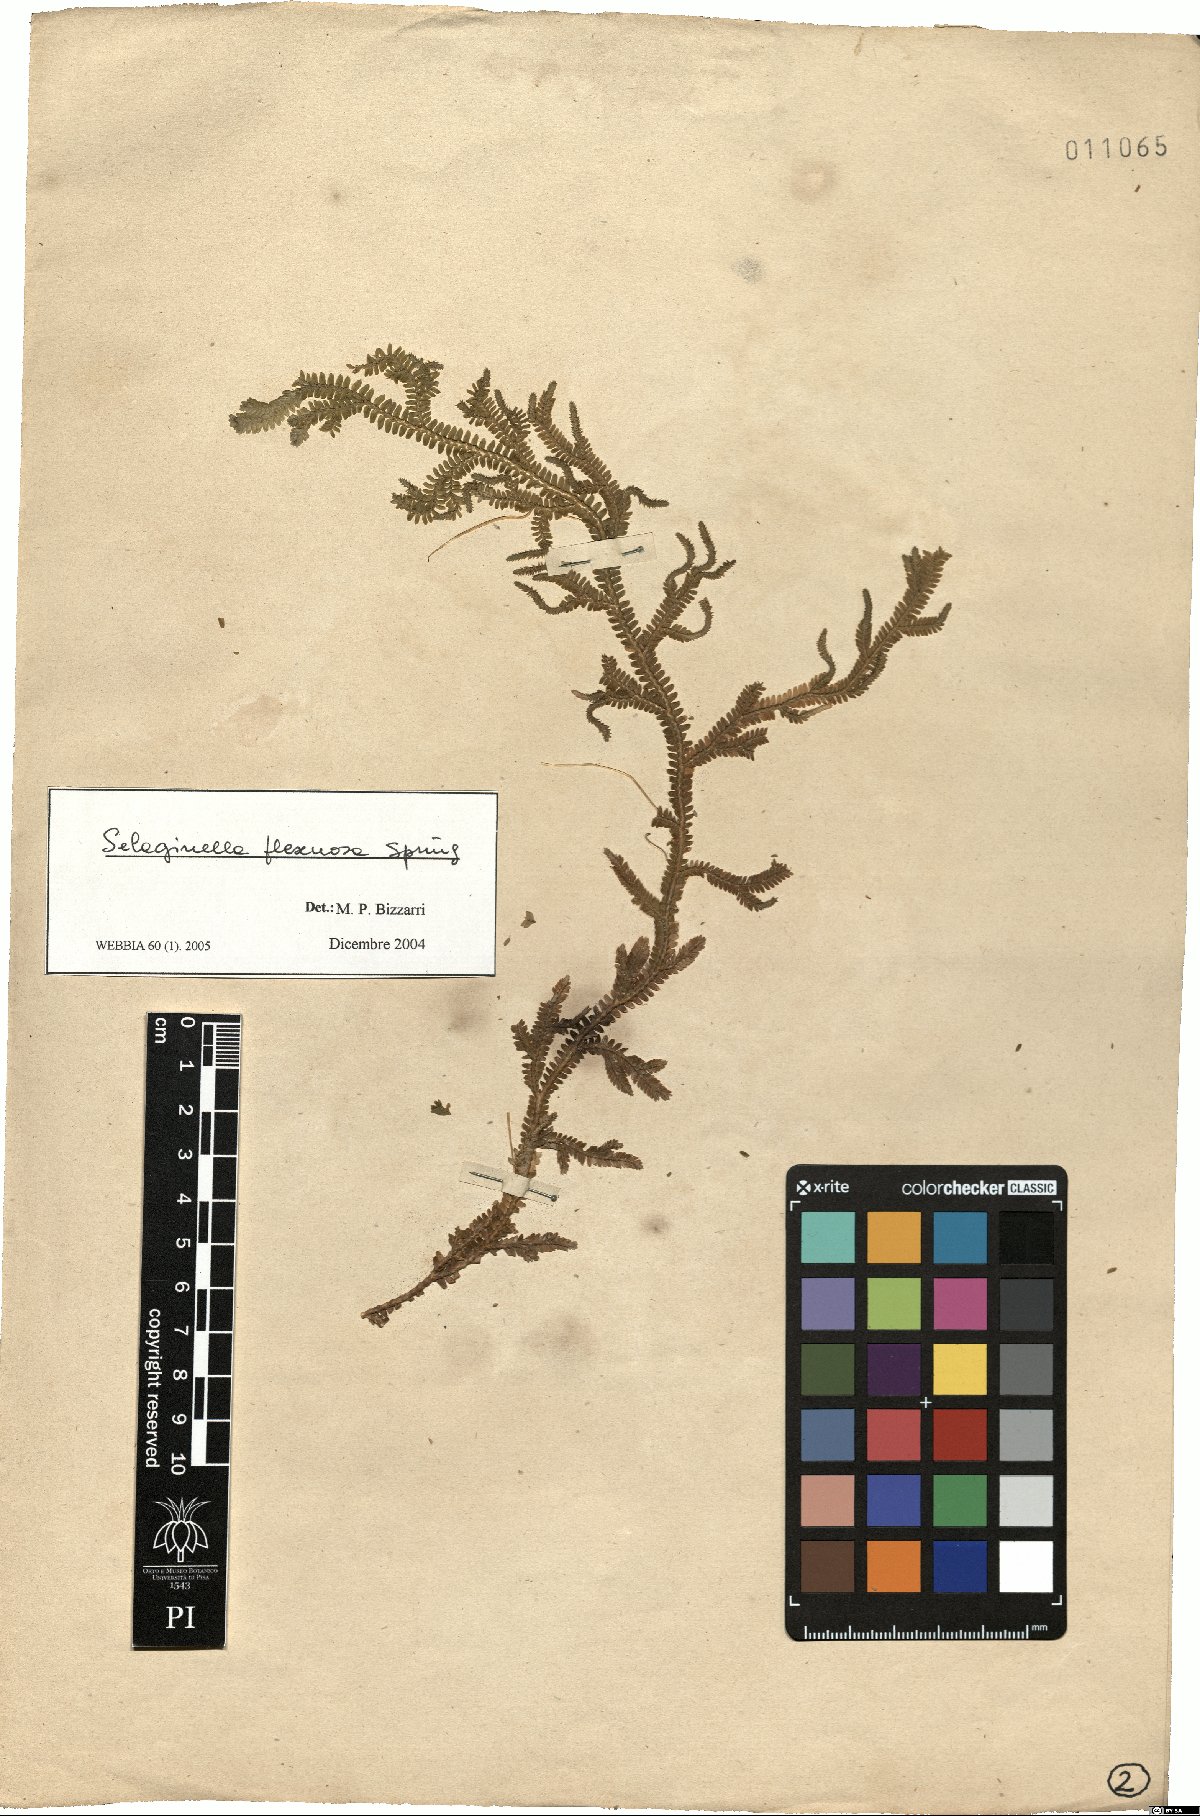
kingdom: Plantae
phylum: Tracheophyta
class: Lycopodiopsida
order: Selaginellales
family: Selaginellaceae
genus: Selaginella
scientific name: Selaginella flexuosa
